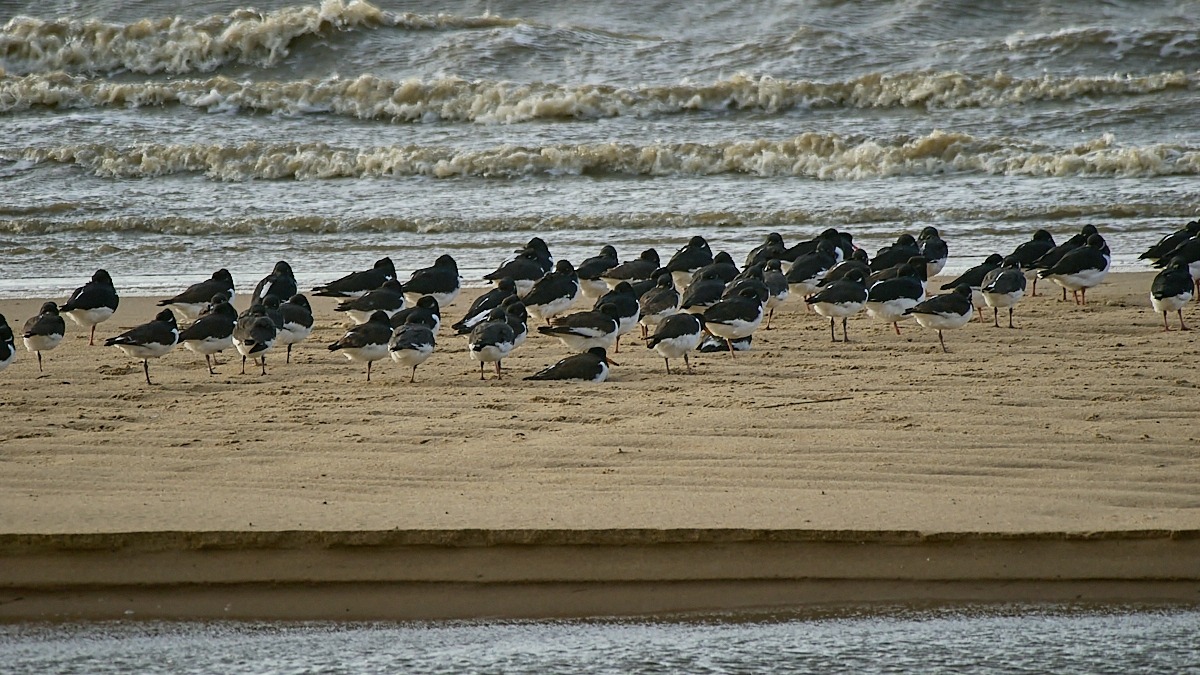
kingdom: Animalia
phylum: Chordata
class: Aves
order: Charadriiformes
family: Haematopodidae
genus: Haematopus
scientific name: Haematopus ostralegus
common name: Strandskade
